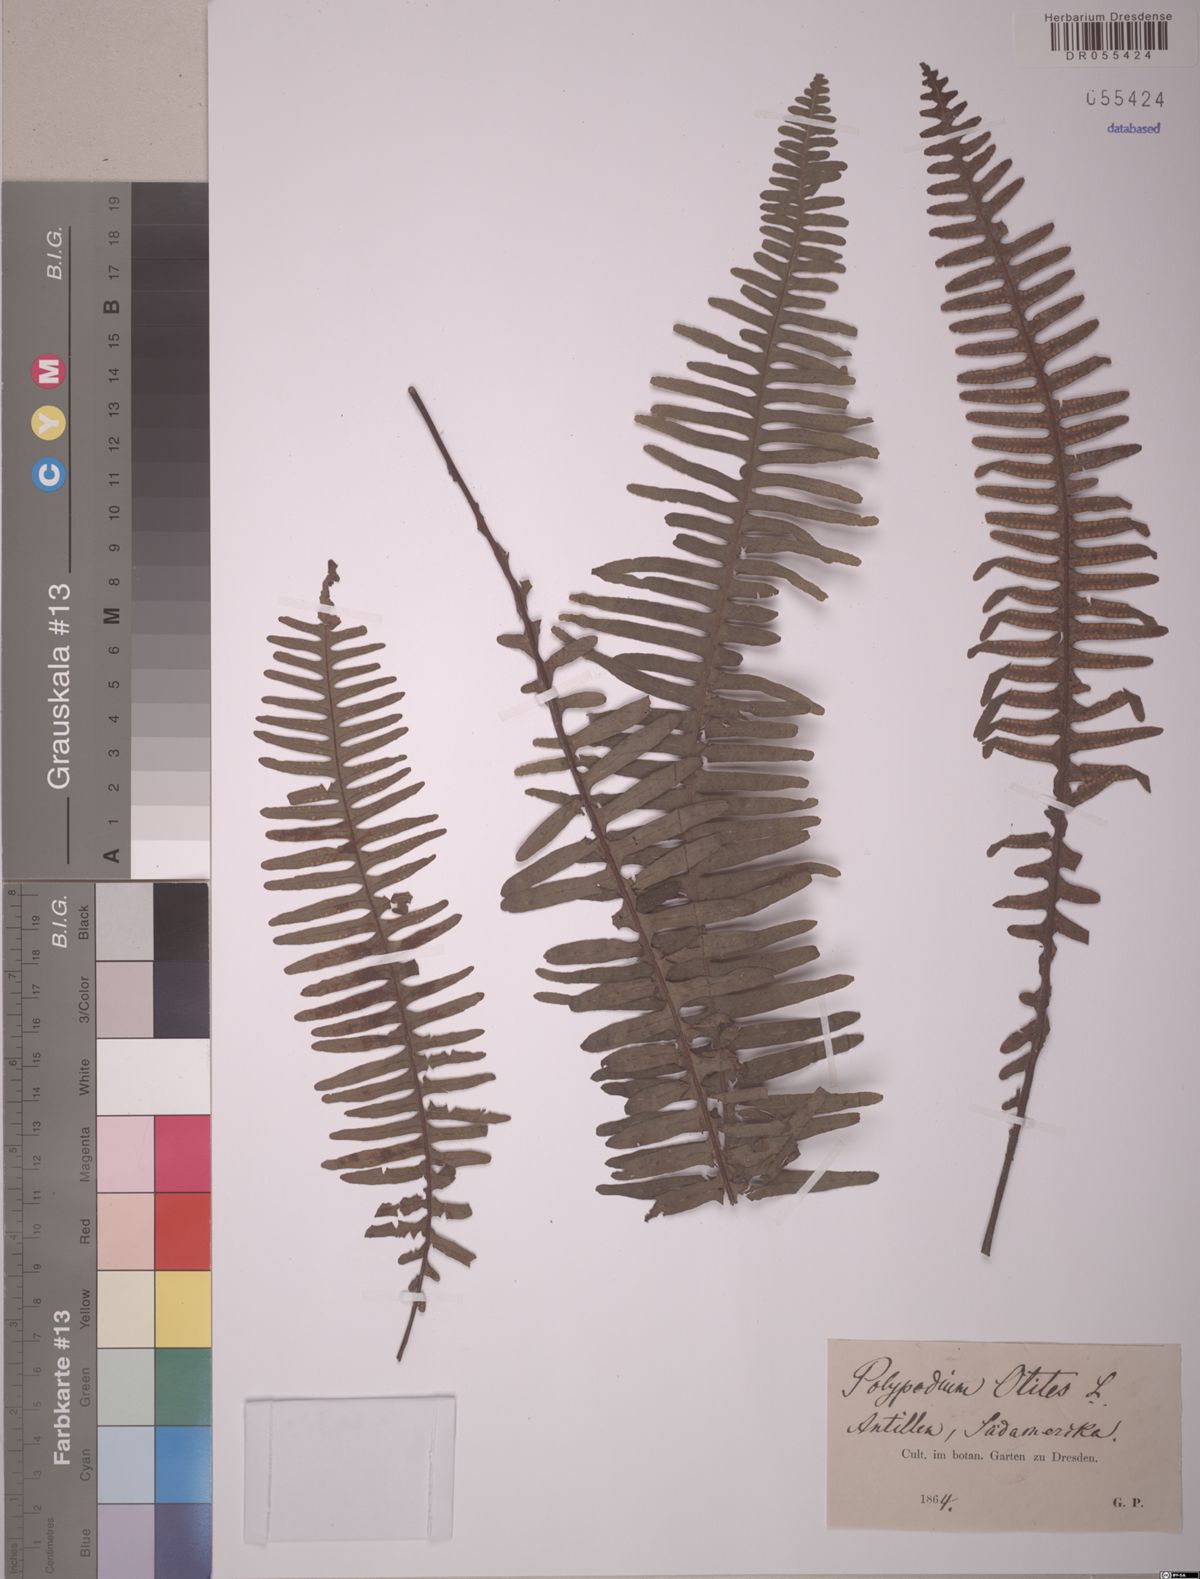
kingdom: Plantae
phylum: Tracheophyta
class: Polypodiopsida
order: Polypodiales
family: Polypodiaceae
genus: Polypodium
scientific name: Polypodium otites
